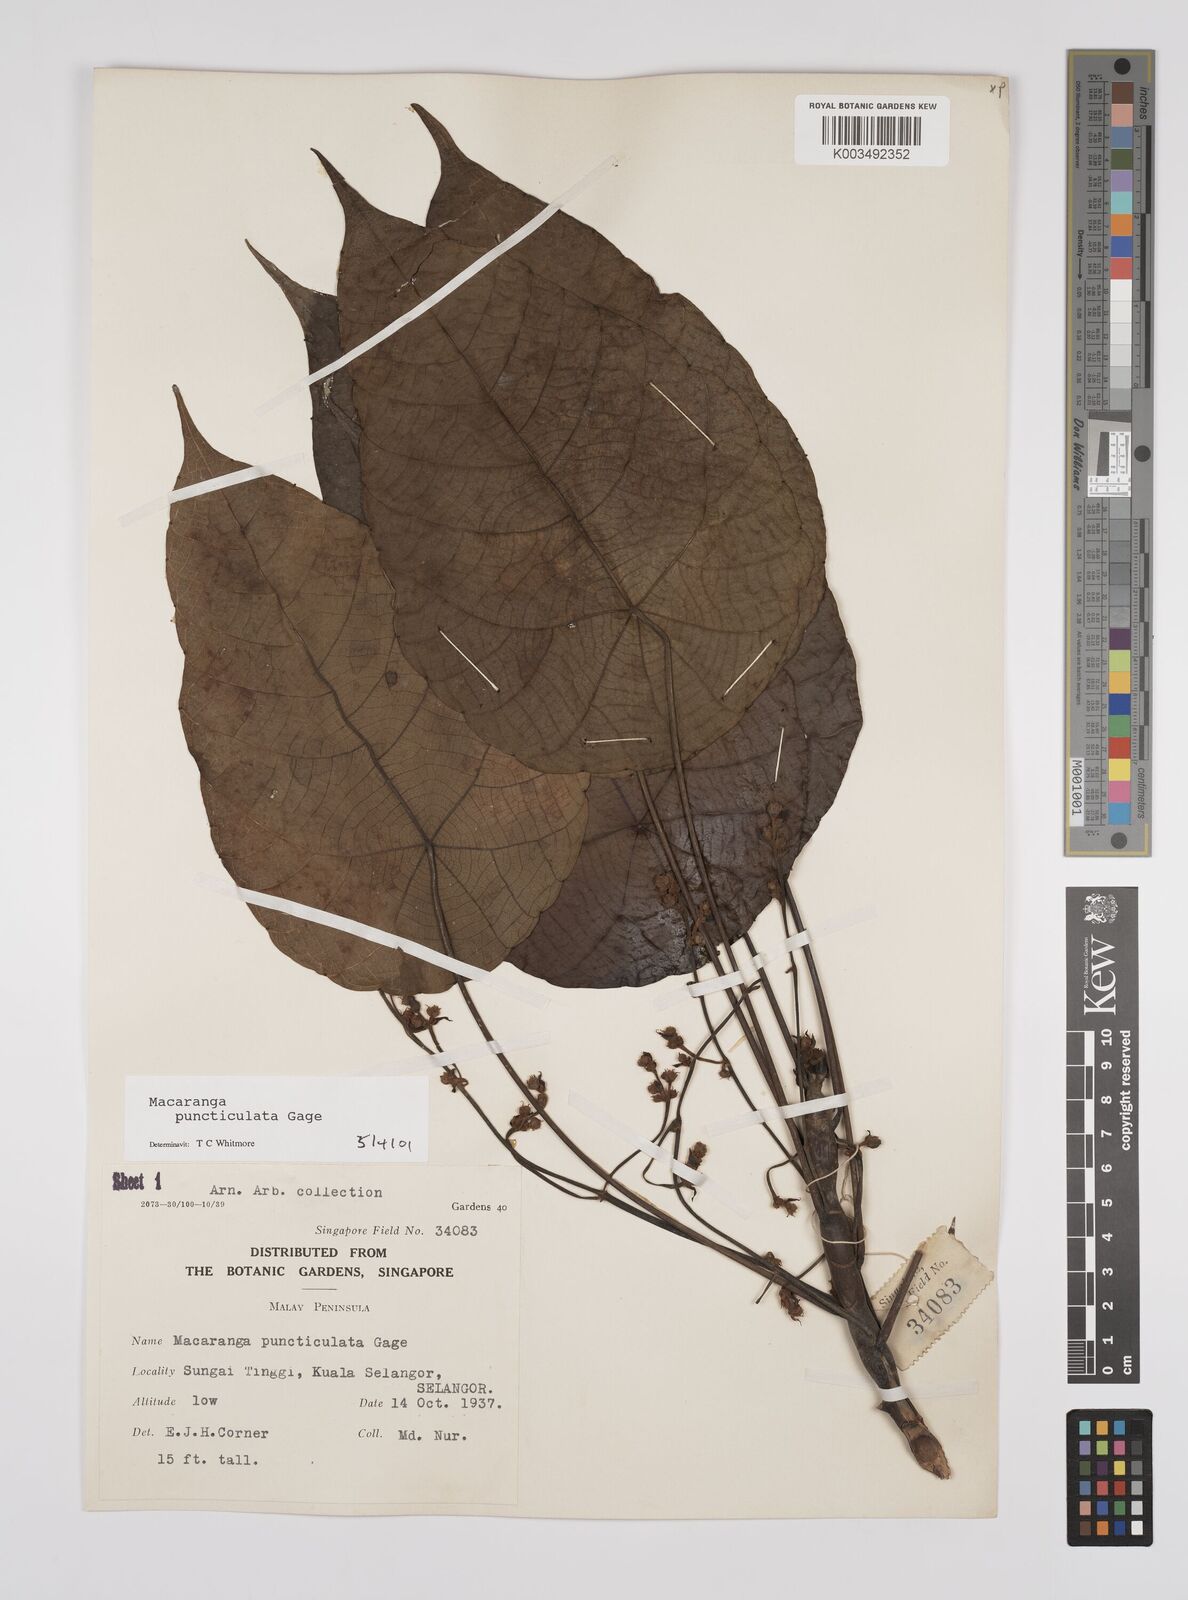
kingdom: Plantae
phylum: Tracheophyta
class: Magnoliopsida
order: Malpighiales
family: Euphorbiaceae
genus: Macaranga
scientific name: Macaranga puncticulata
